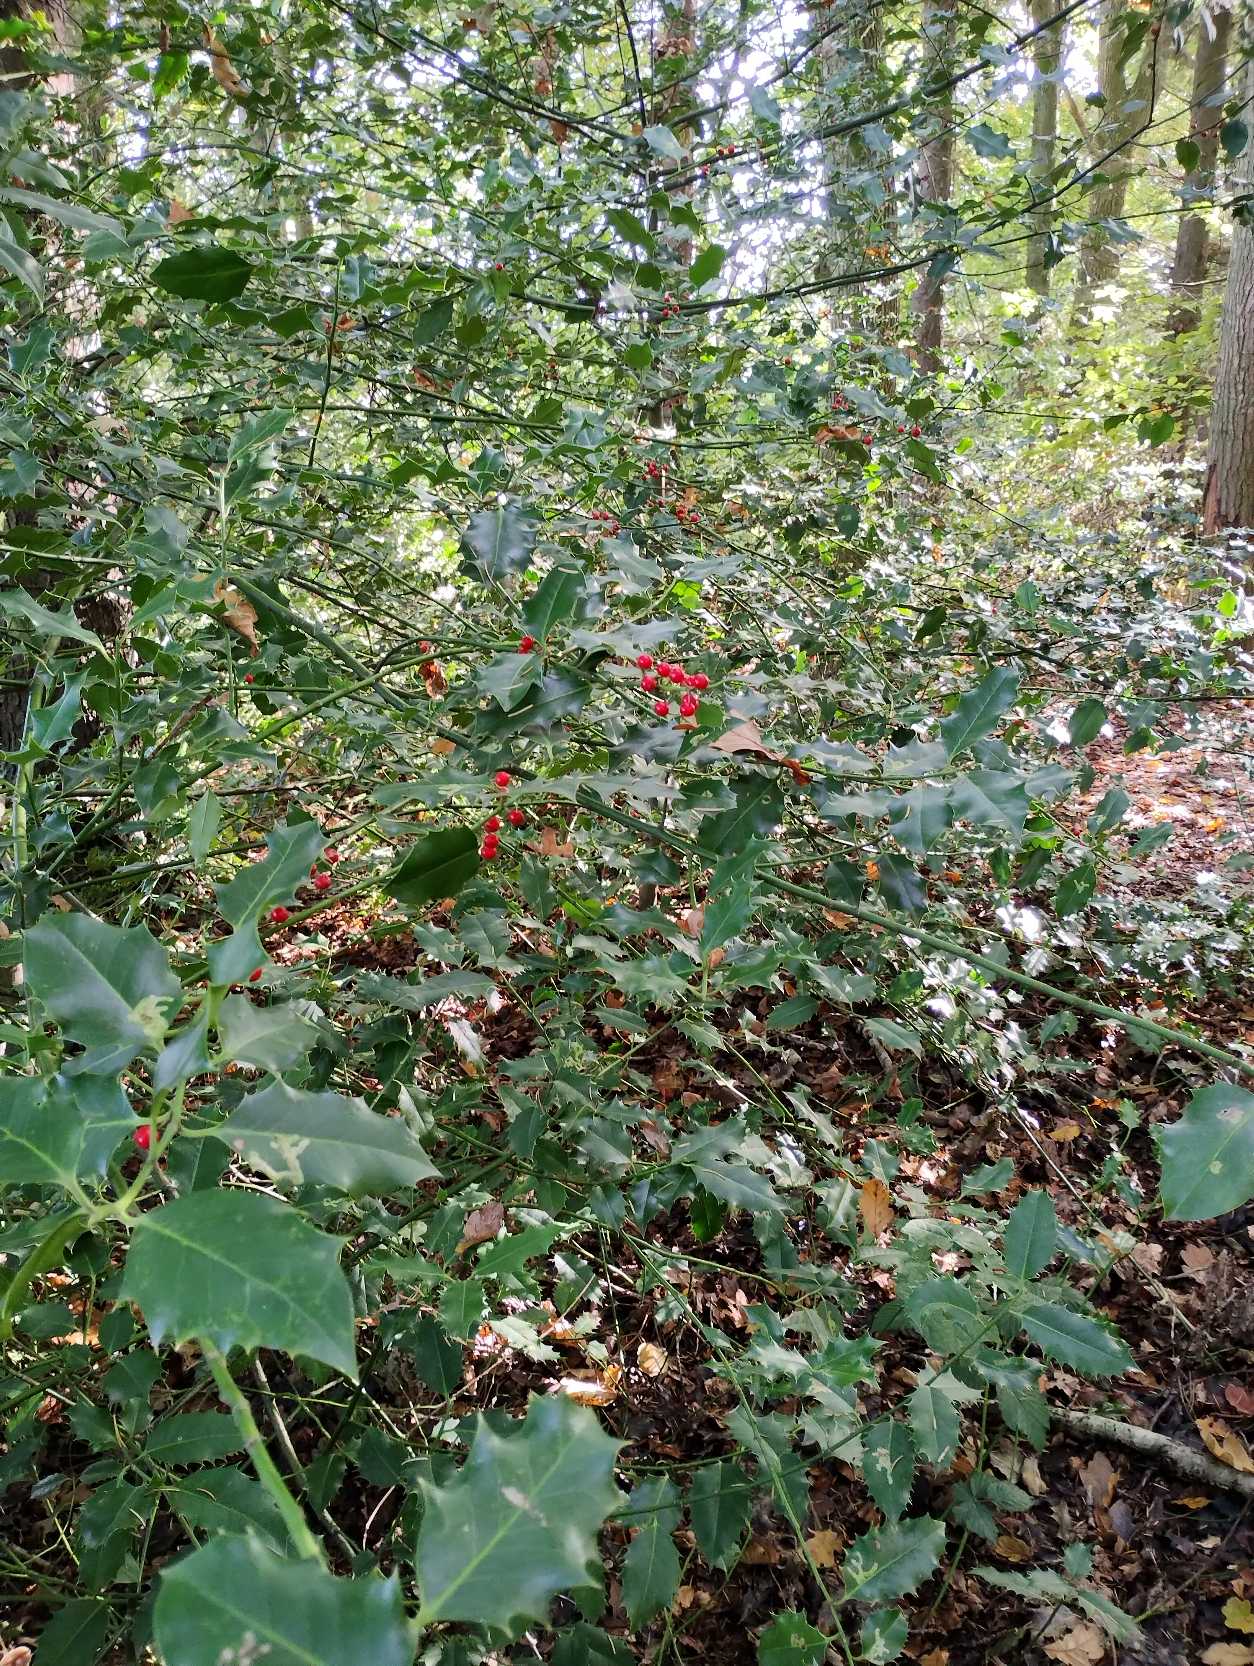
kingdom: Plantae
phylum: Tracheophyta
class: Magnoliopsida
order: Aquifoliales
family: Aquifoliaceae
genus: Ilex
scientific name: Ilex aquifolium
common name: Kristtorn
